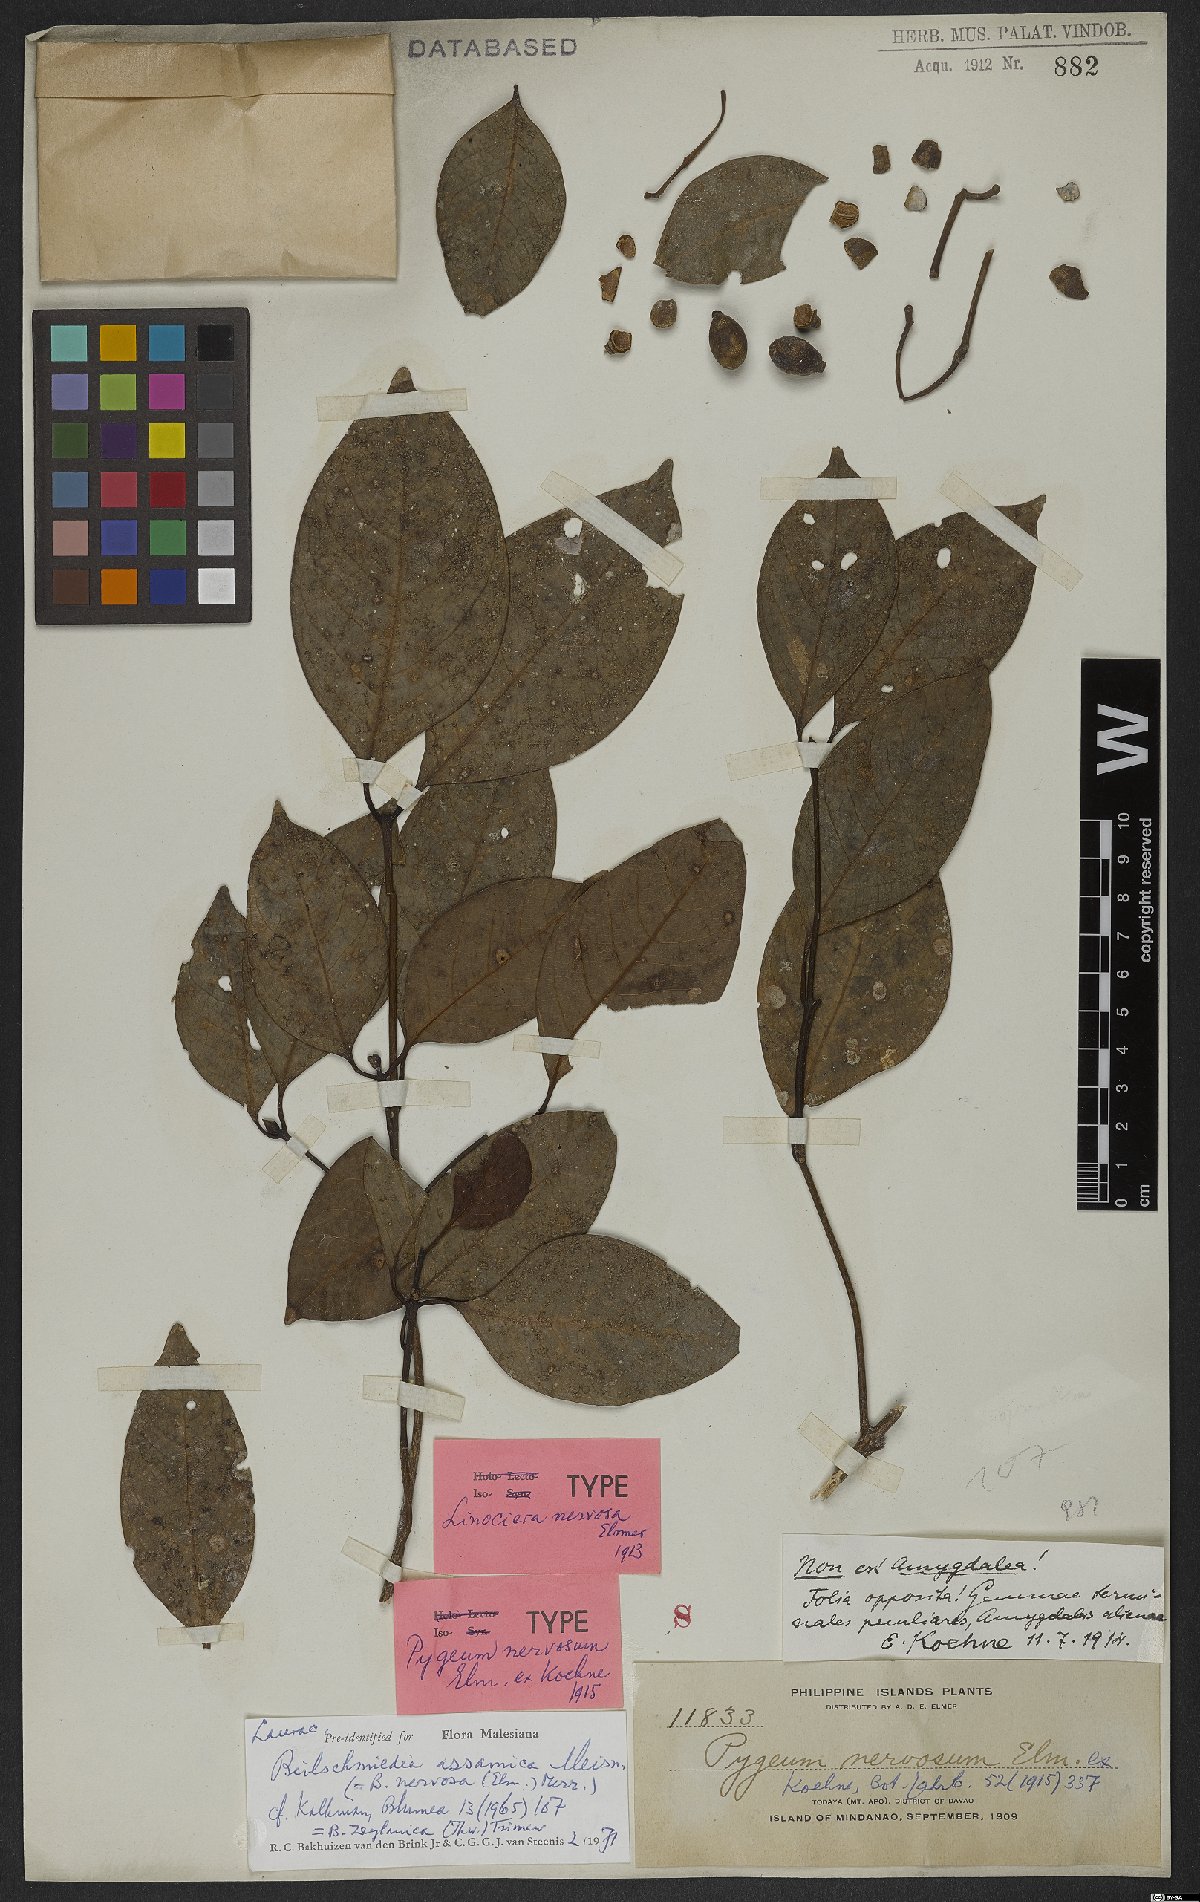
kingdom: Plantae
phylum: Tracheophyta
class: Magnoliopsida
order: Laurales
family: Lauraceae
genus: Beilschmiedia
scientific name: Beilschmiedia assamica
